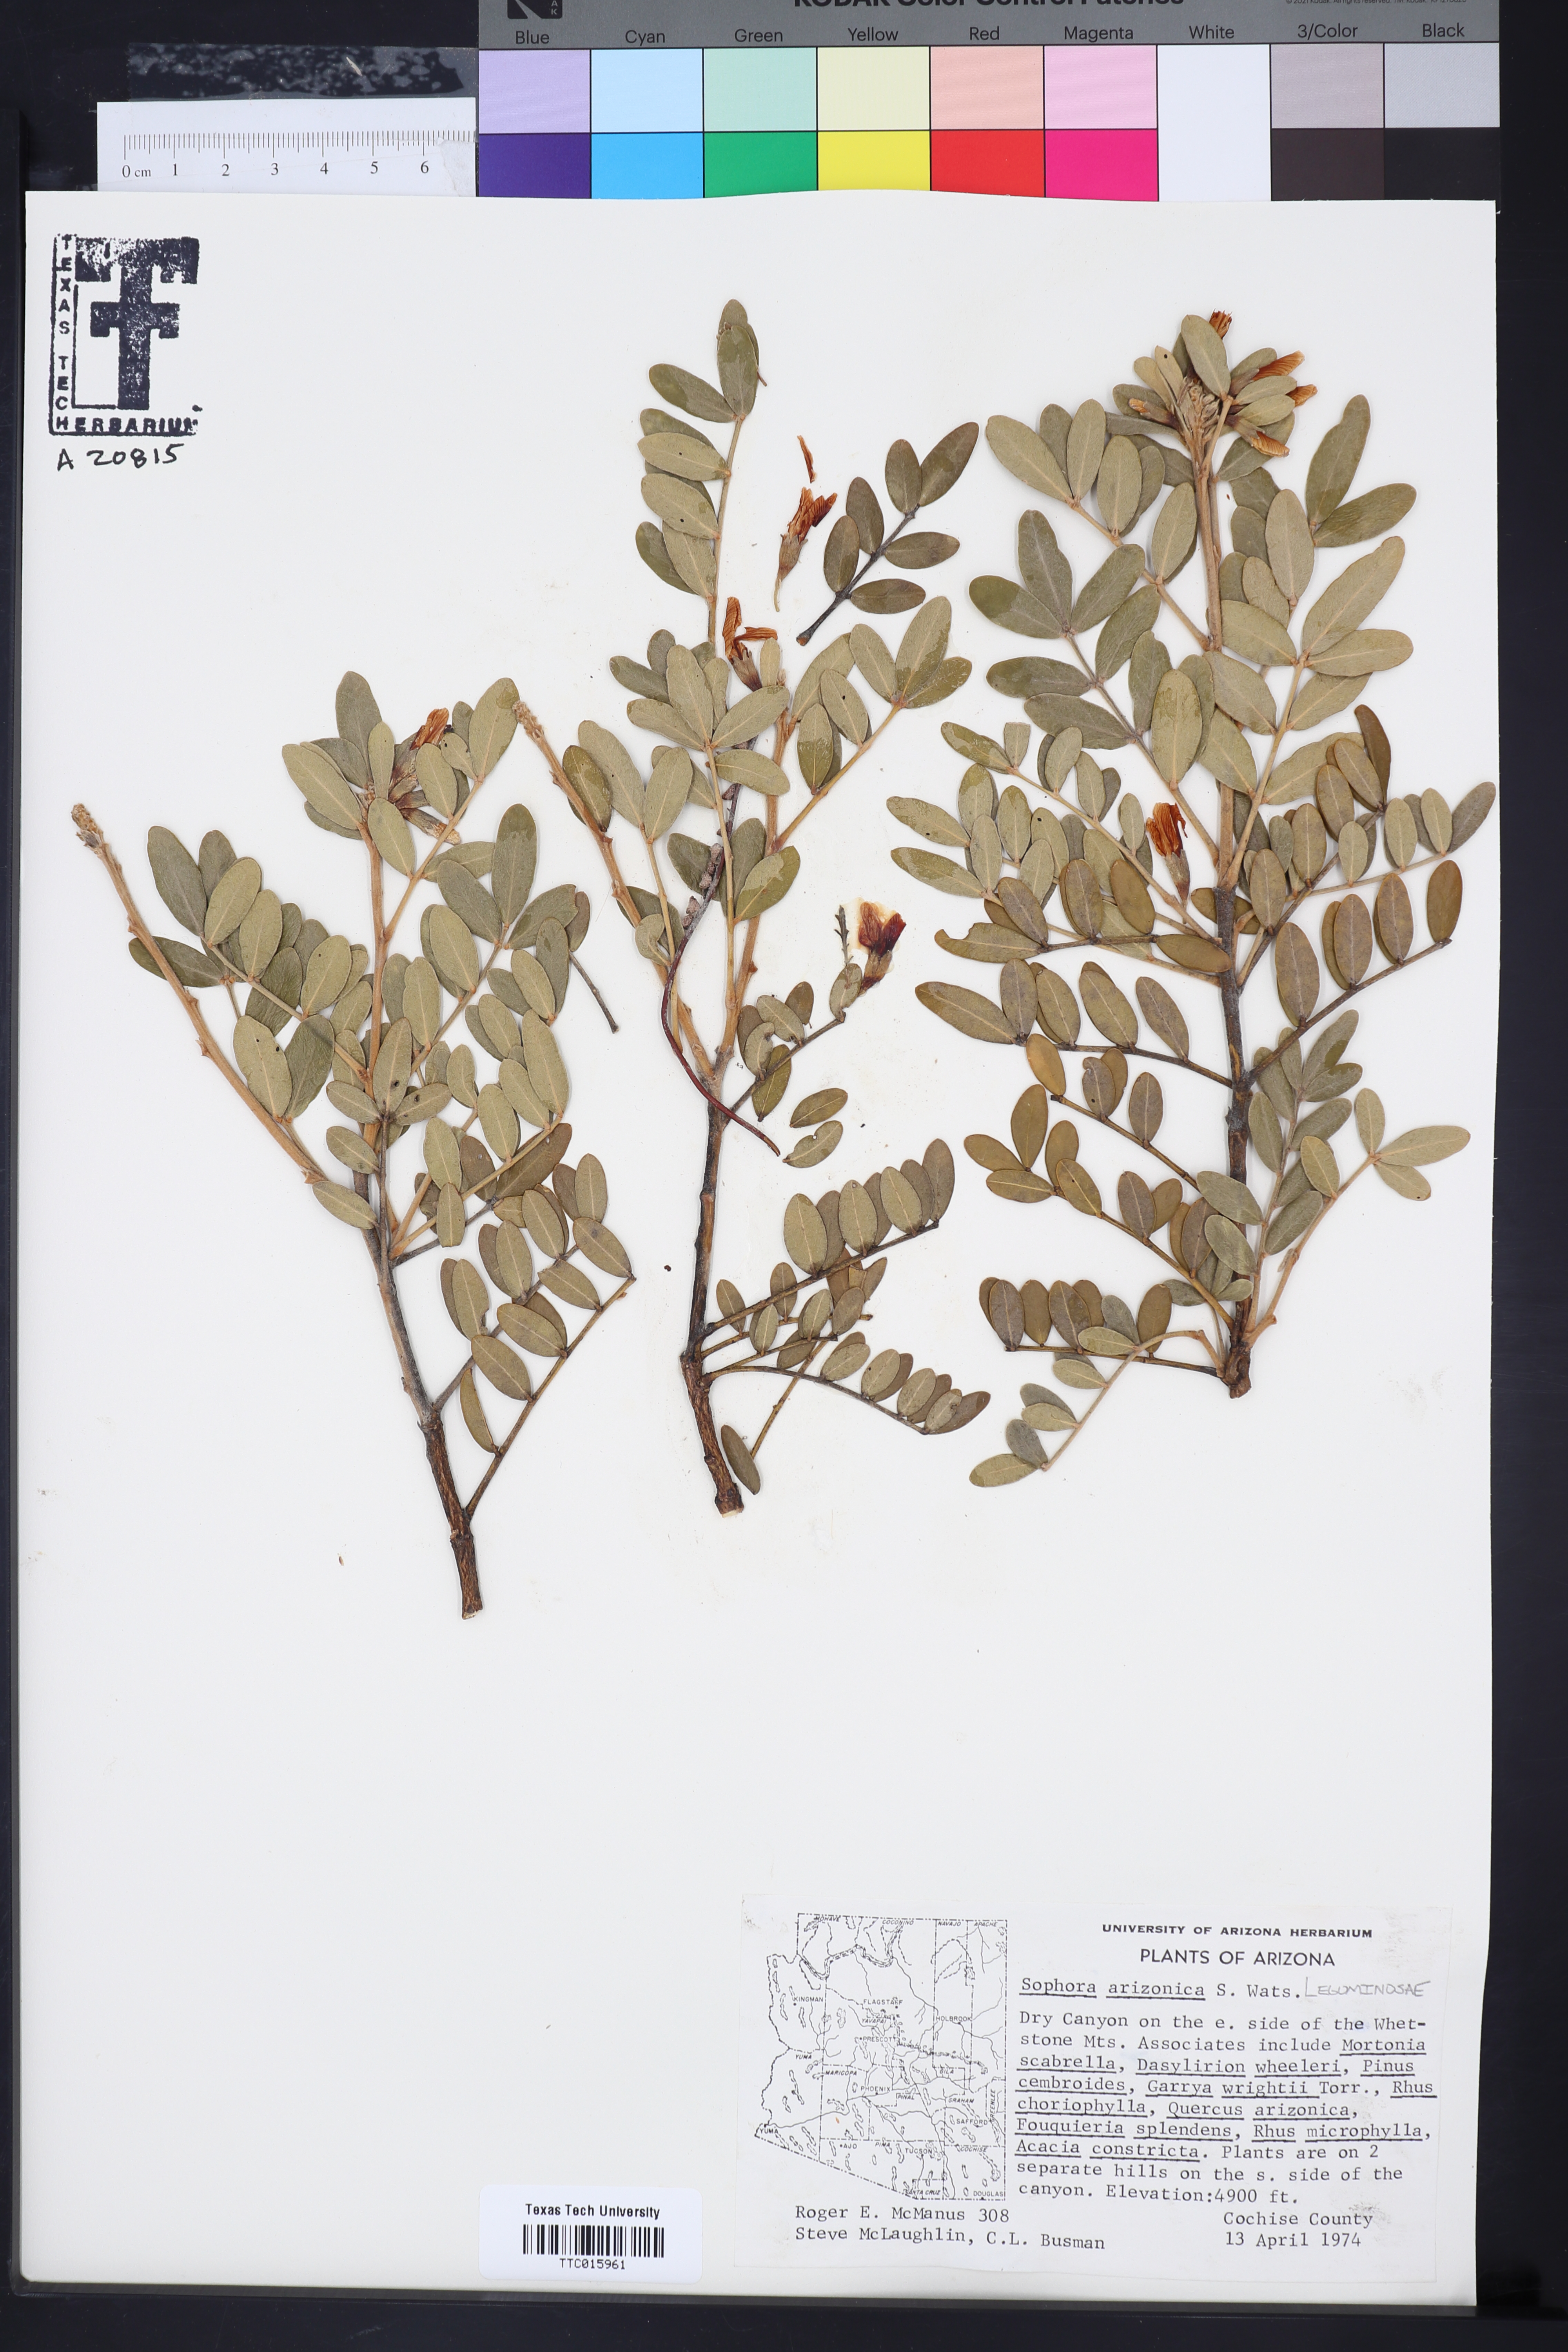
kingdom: Plantae
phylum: Tracheophyta
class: Magnoliopsida
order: Fabales
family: Fabaceae
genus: Dermatophyllum
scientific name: Dermatophyllum arizonicum
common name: Arizona necklace
